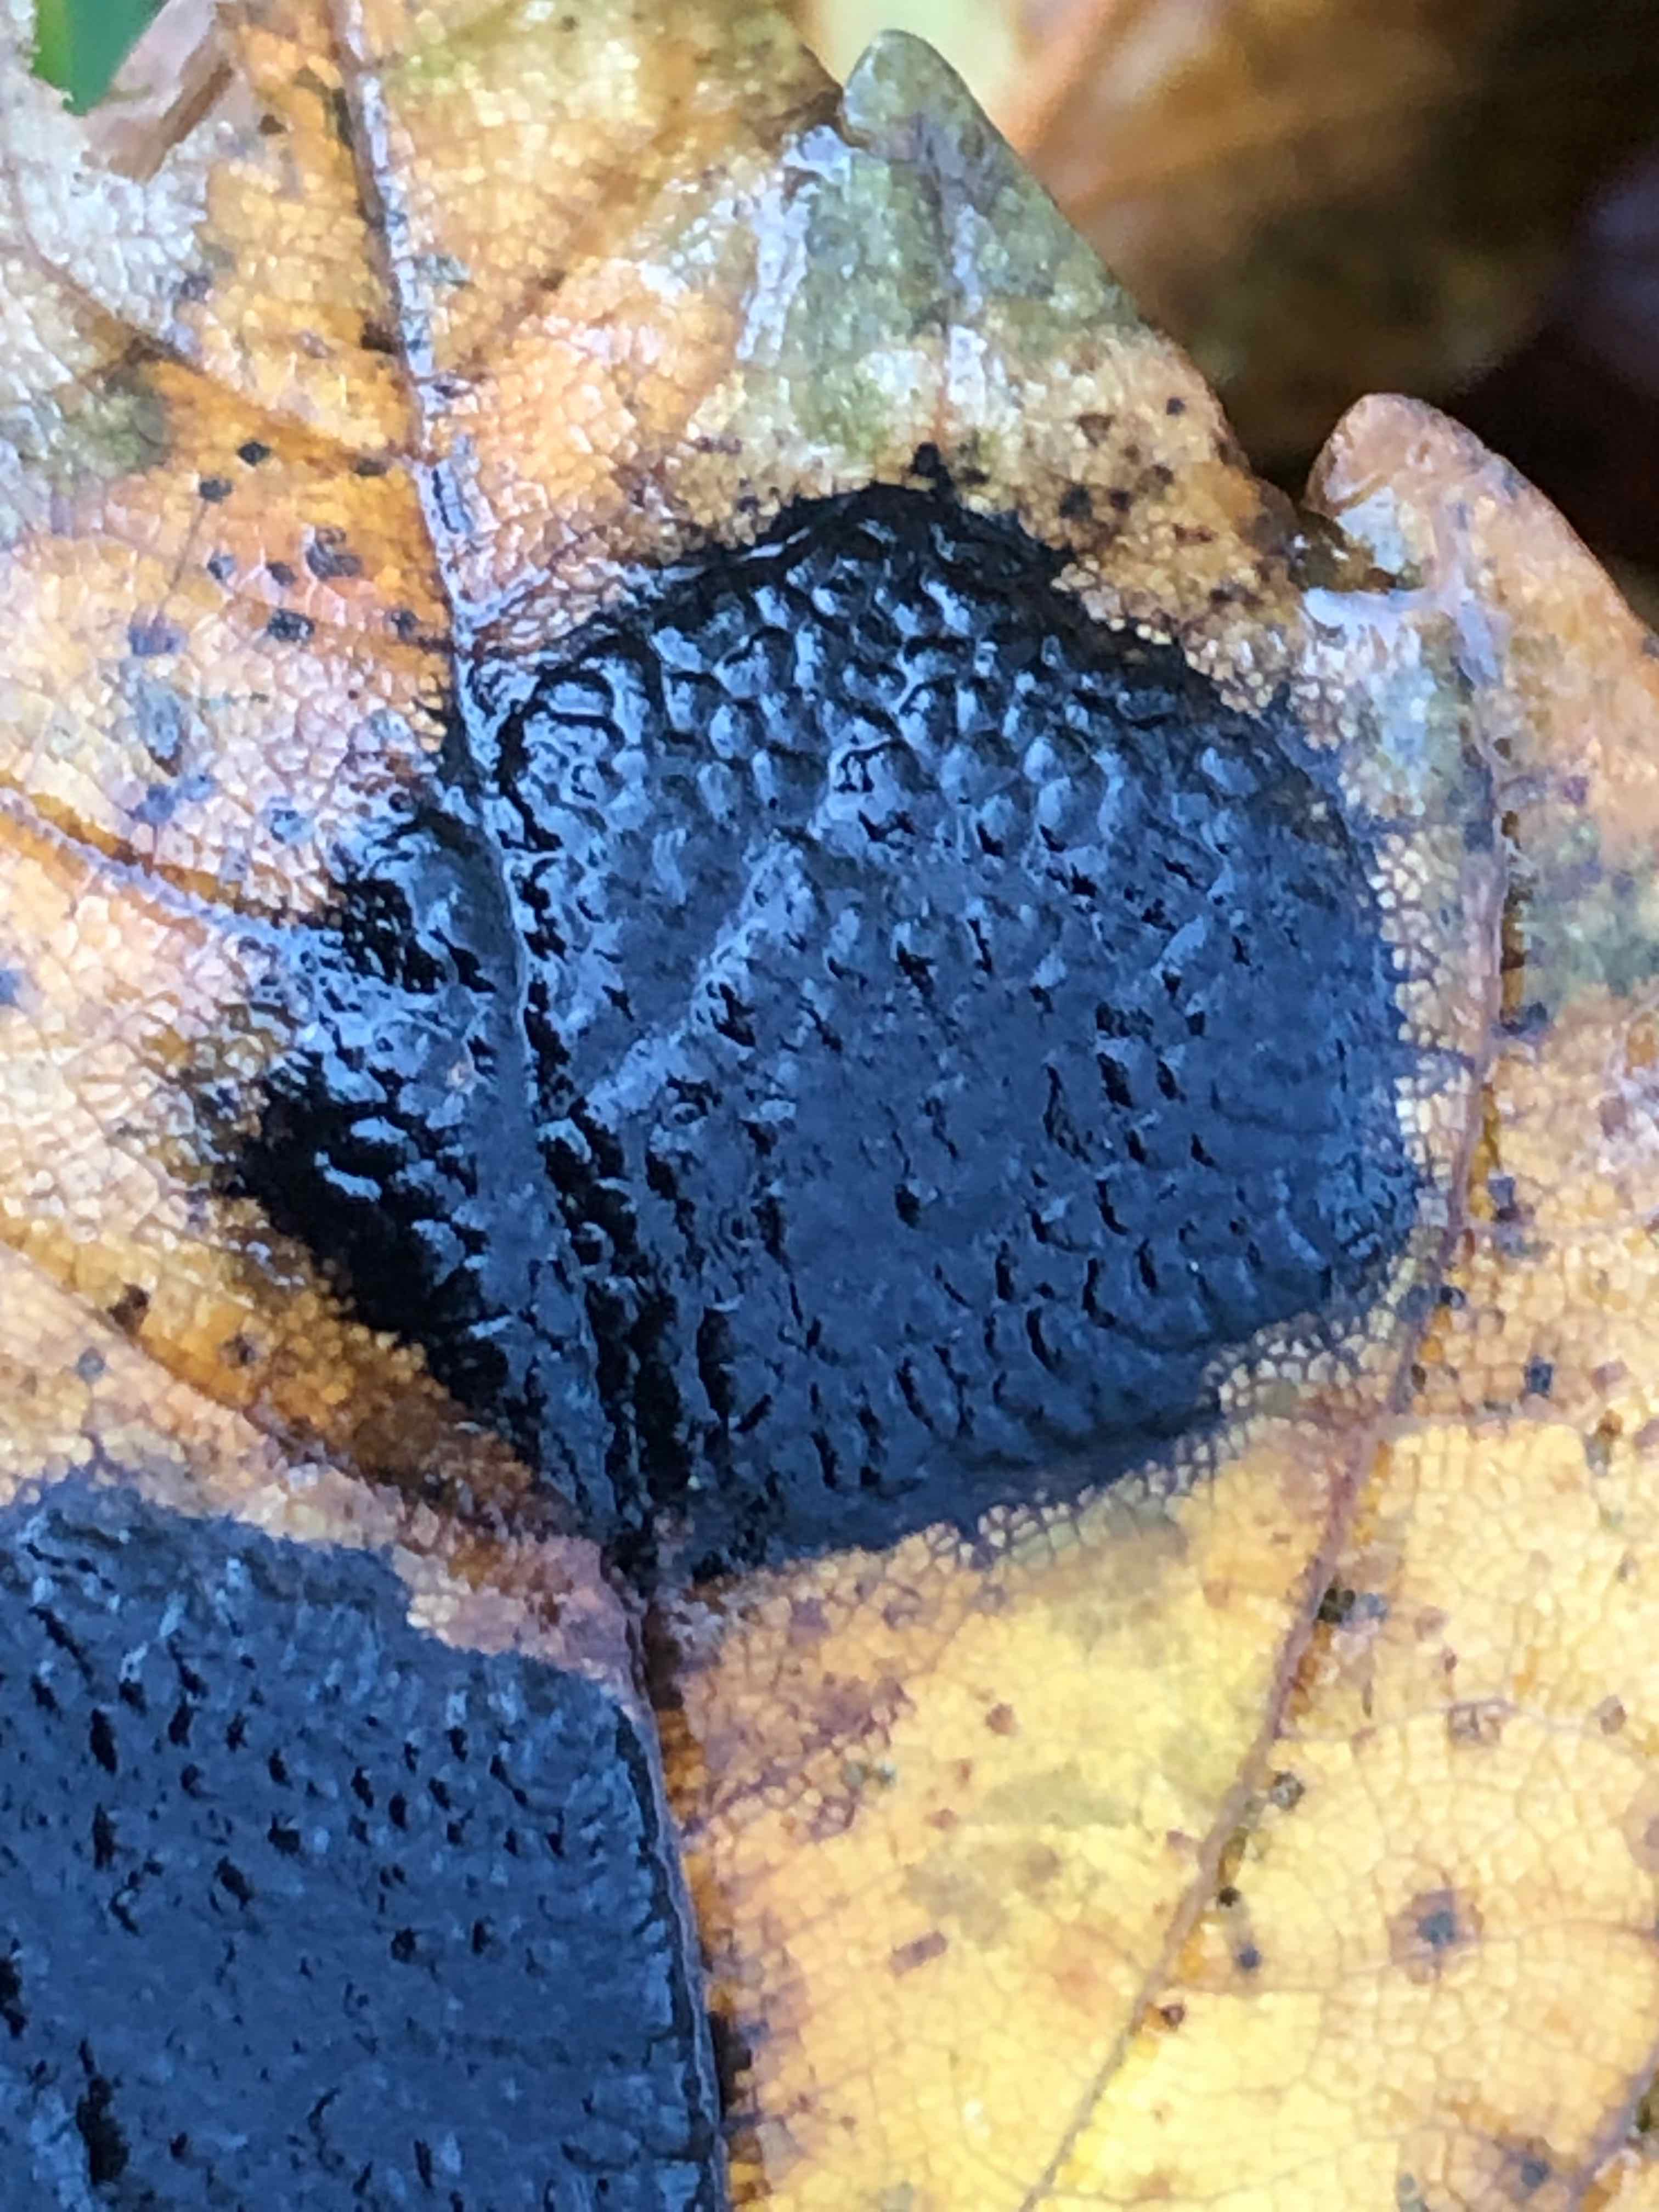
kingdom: Fungi
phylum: Ascomycota
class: Leotiomycetes
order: Rhytismatales
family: Rhytismataceae
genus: Rhytisma
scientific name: Rhytisma acerinum
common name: ahorn-rynkeplet
